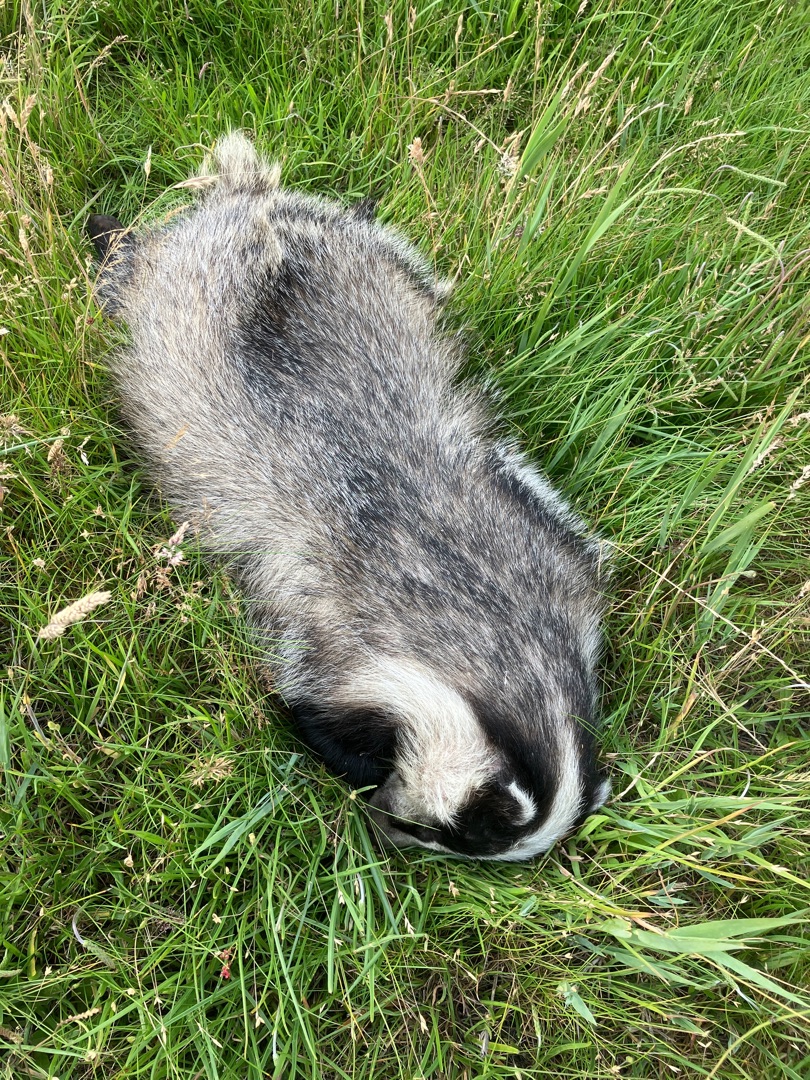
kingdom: Animalia
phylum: Chordata
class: Mammalia
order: Carnivora
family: Mustelidae
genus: Meles
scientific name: Meles meles
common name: Grævling
